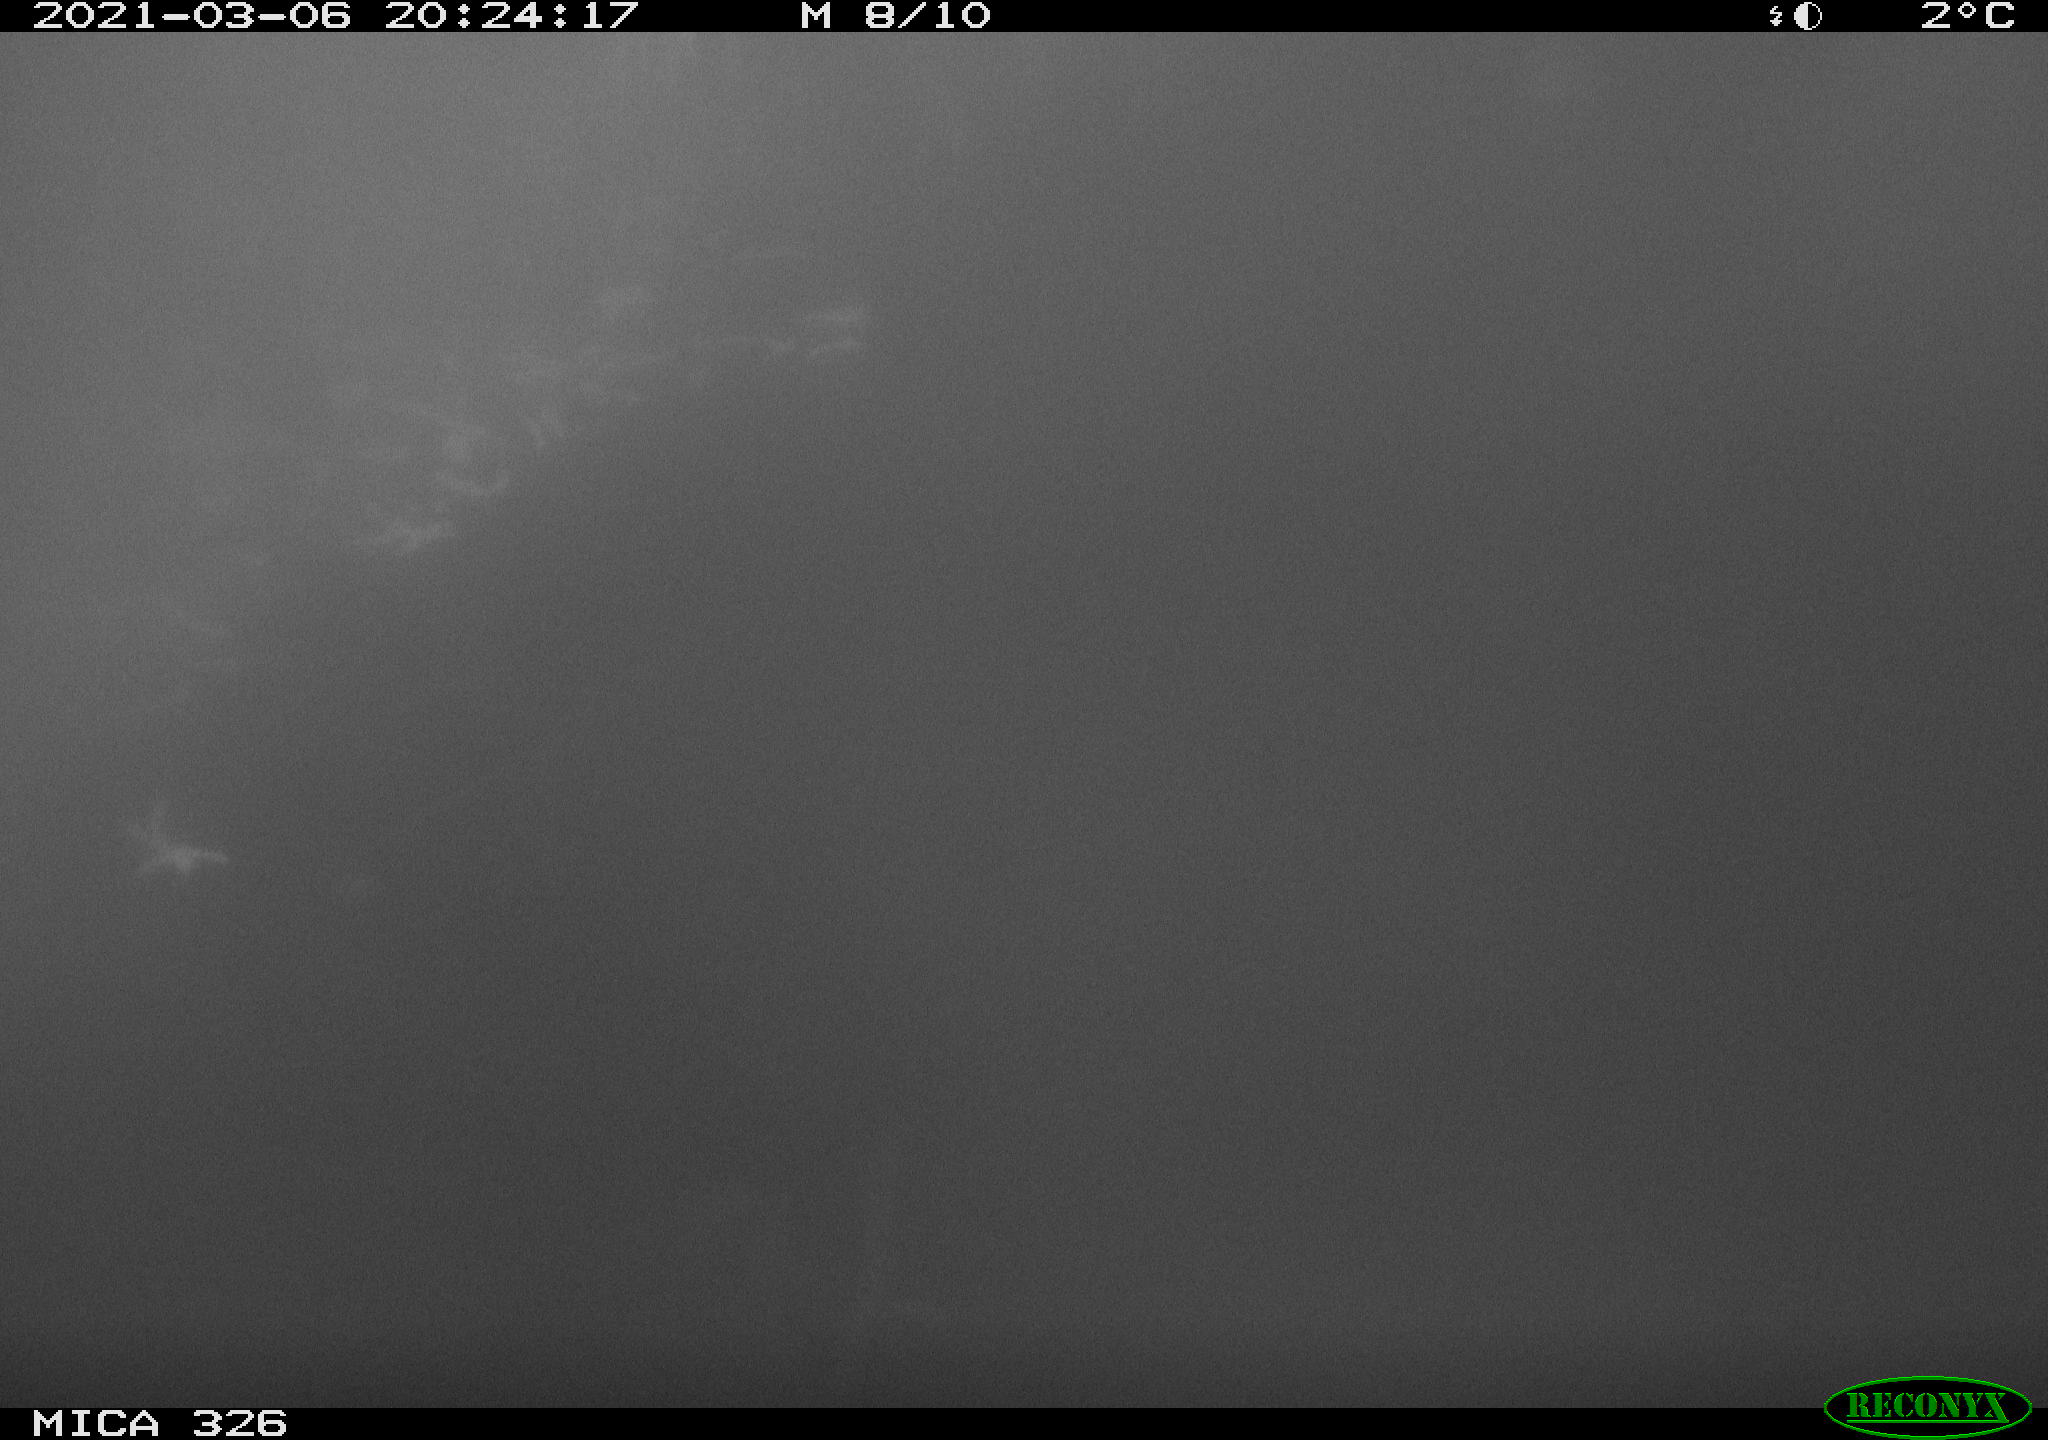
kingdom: Animalia
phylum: Chordata
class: Mammalia
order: Rodentia
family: Cricetidae
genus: Ondatra
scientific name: Ondatra zibethicus
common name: Muskrat
